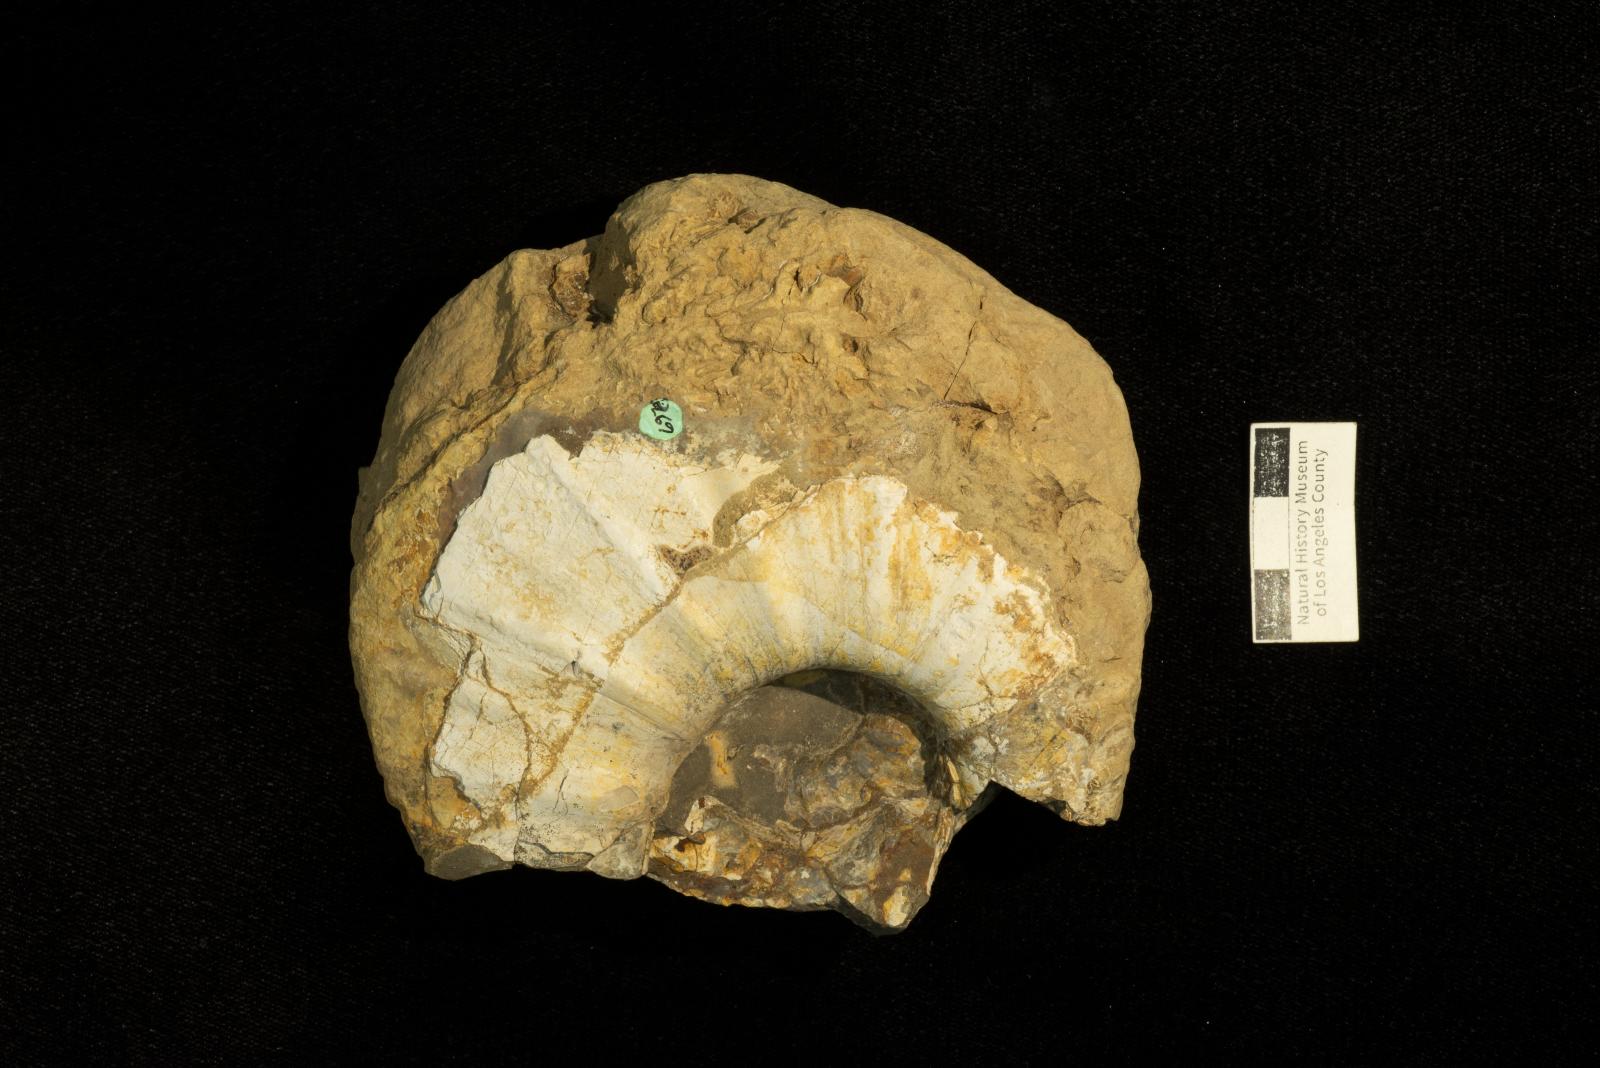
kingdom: Animalia
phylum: Mollusca
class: Cephalopoda
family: Pachydiscidae
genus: Eupachydiscus
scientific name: Eupachydiscus Pachydiscus haradai
